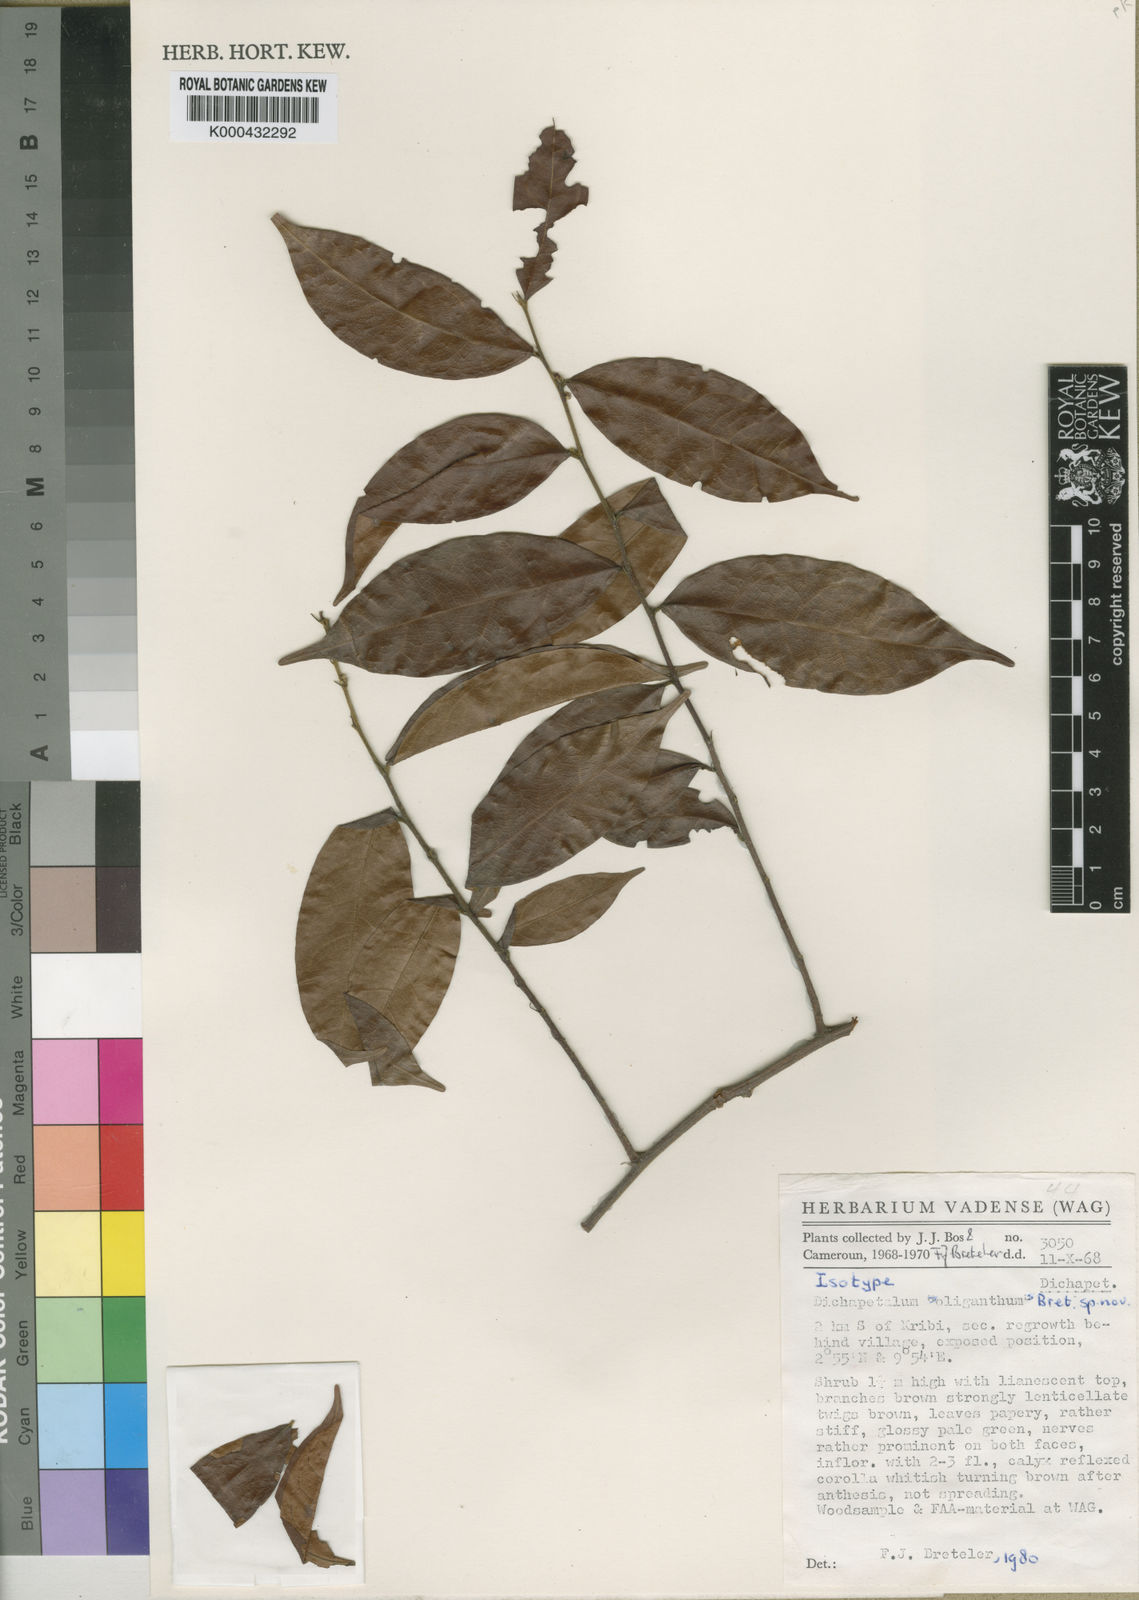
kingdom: Plantae
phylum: Tracheophyta
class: Magnoliopsida
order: Malpighiales
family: Dichapetalaceae
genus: Dichapetalum
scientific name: Dichapetalum oliganthum
